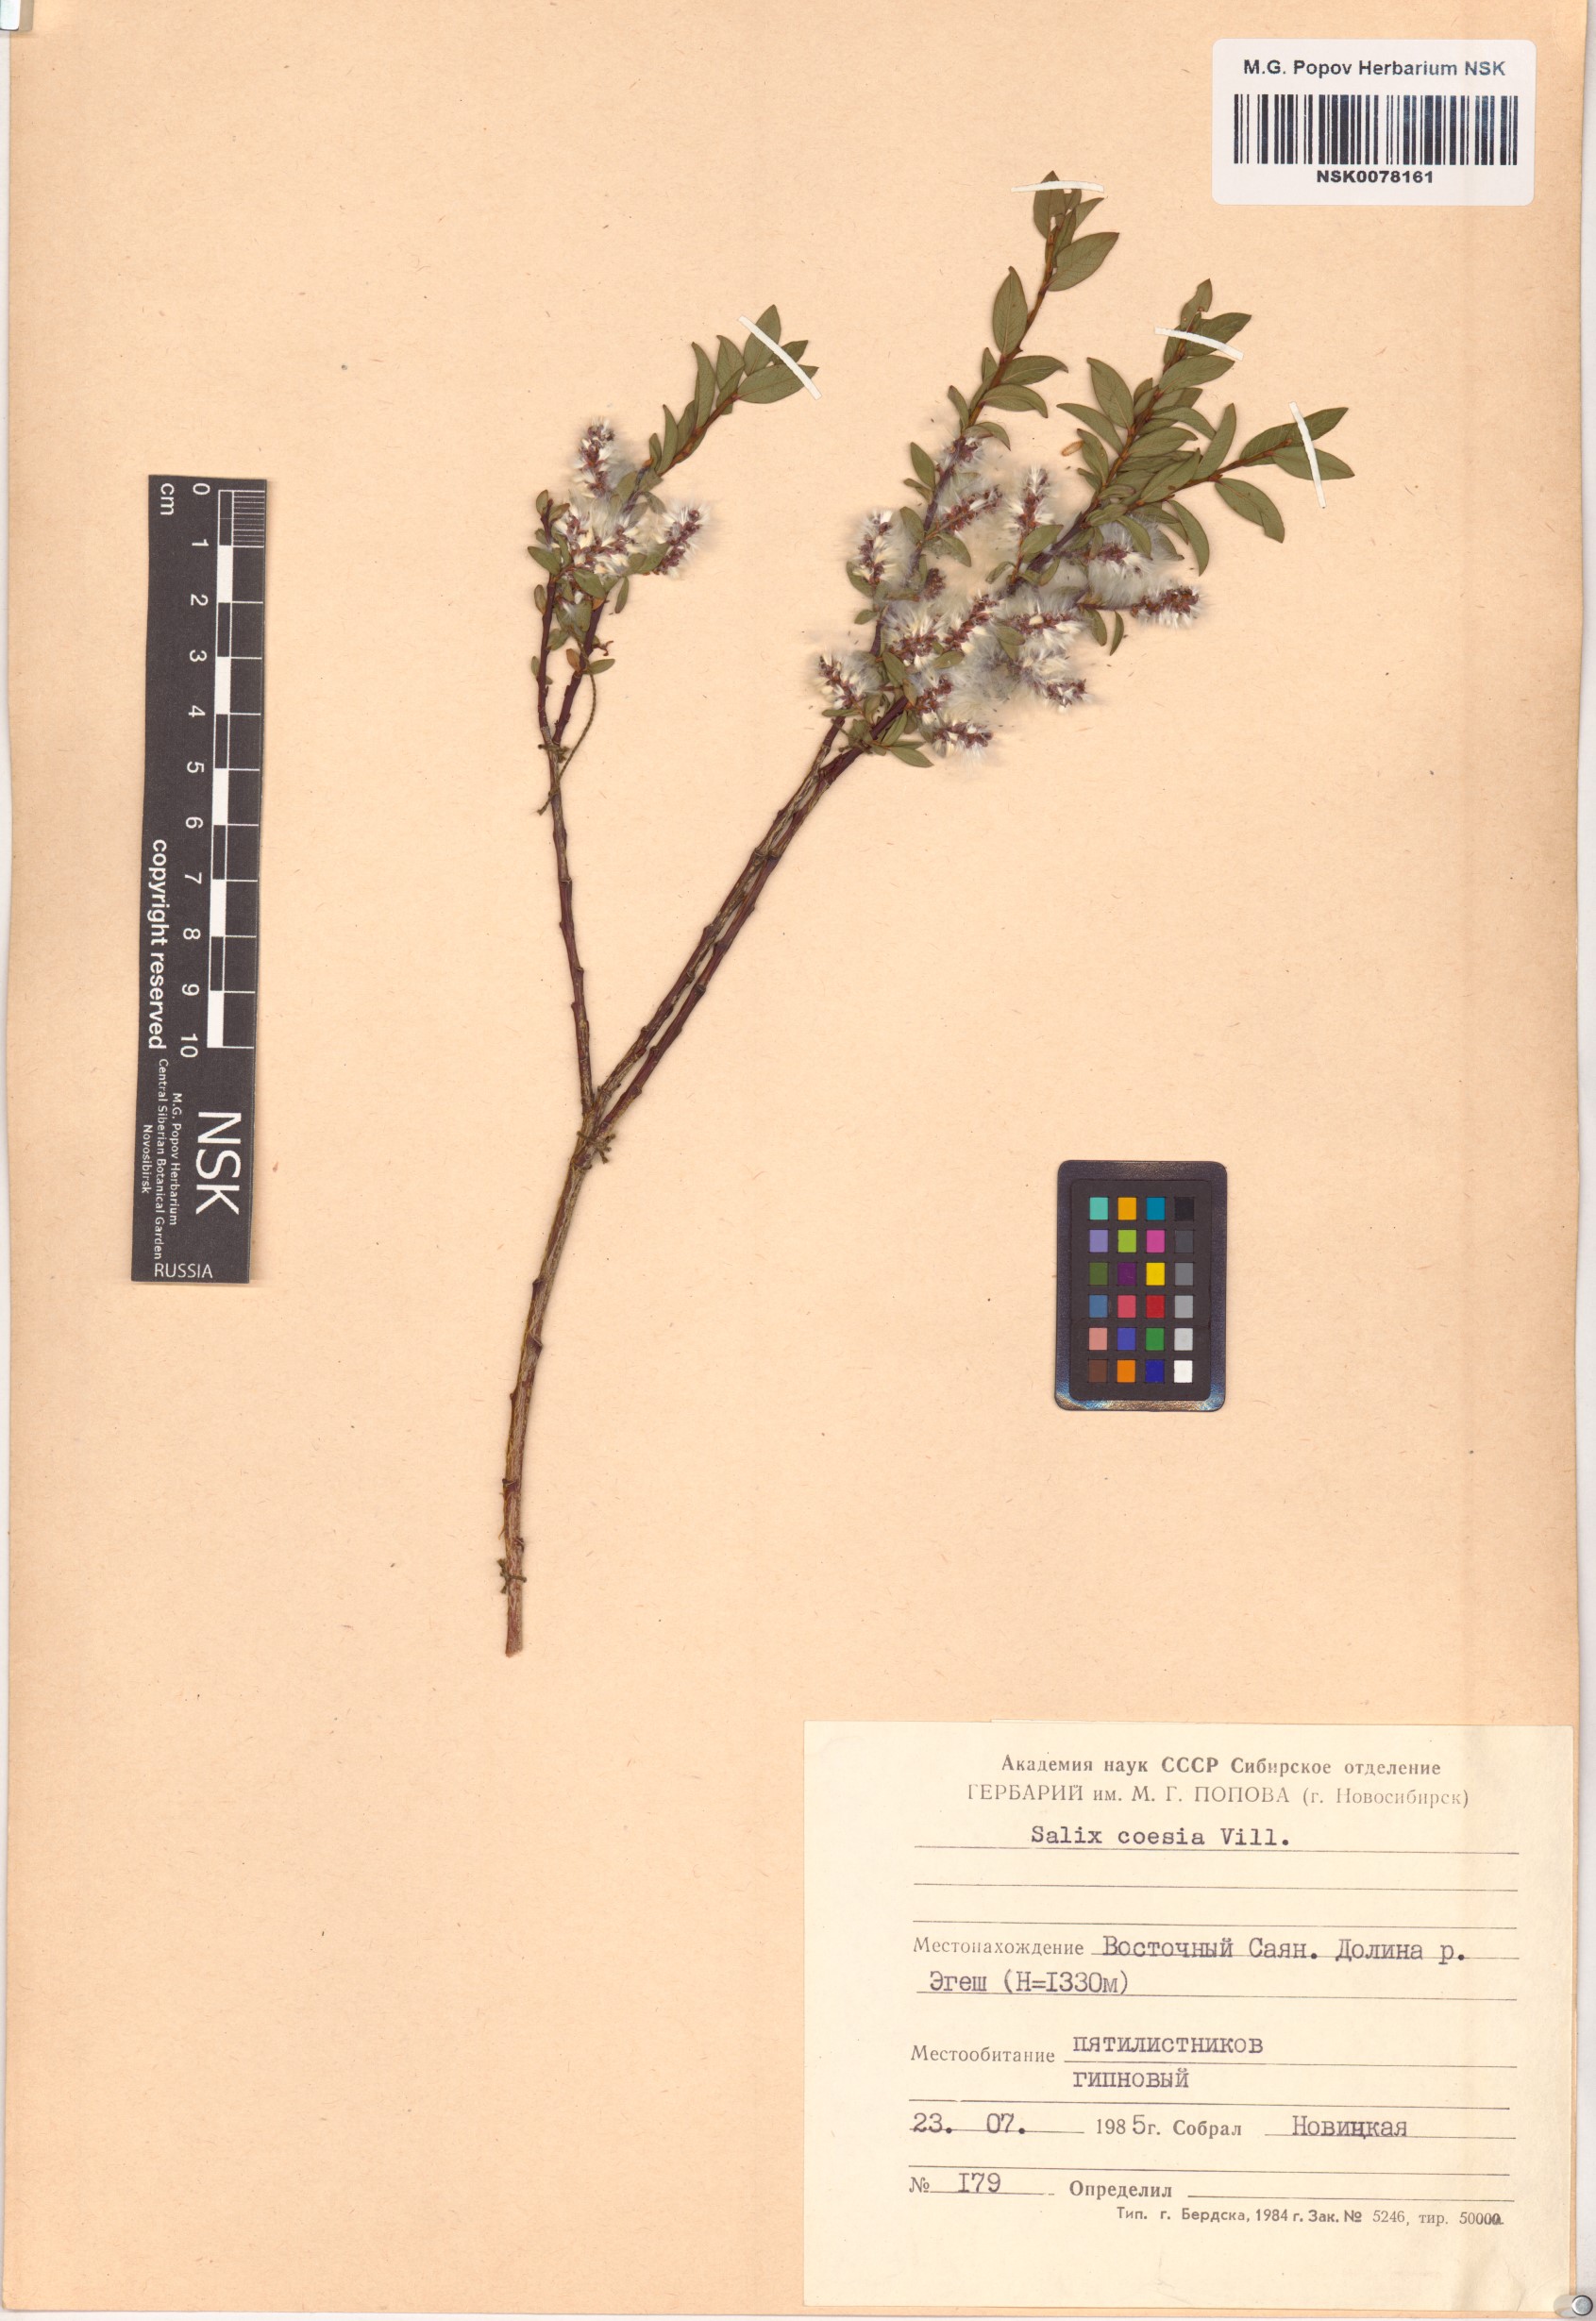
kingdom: Plantae
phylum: Tracheophyta
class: Magnoliopsida
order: Malpighiales
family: Salicaceae
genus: Salix
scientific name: Salix caesia
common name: Blue willow
